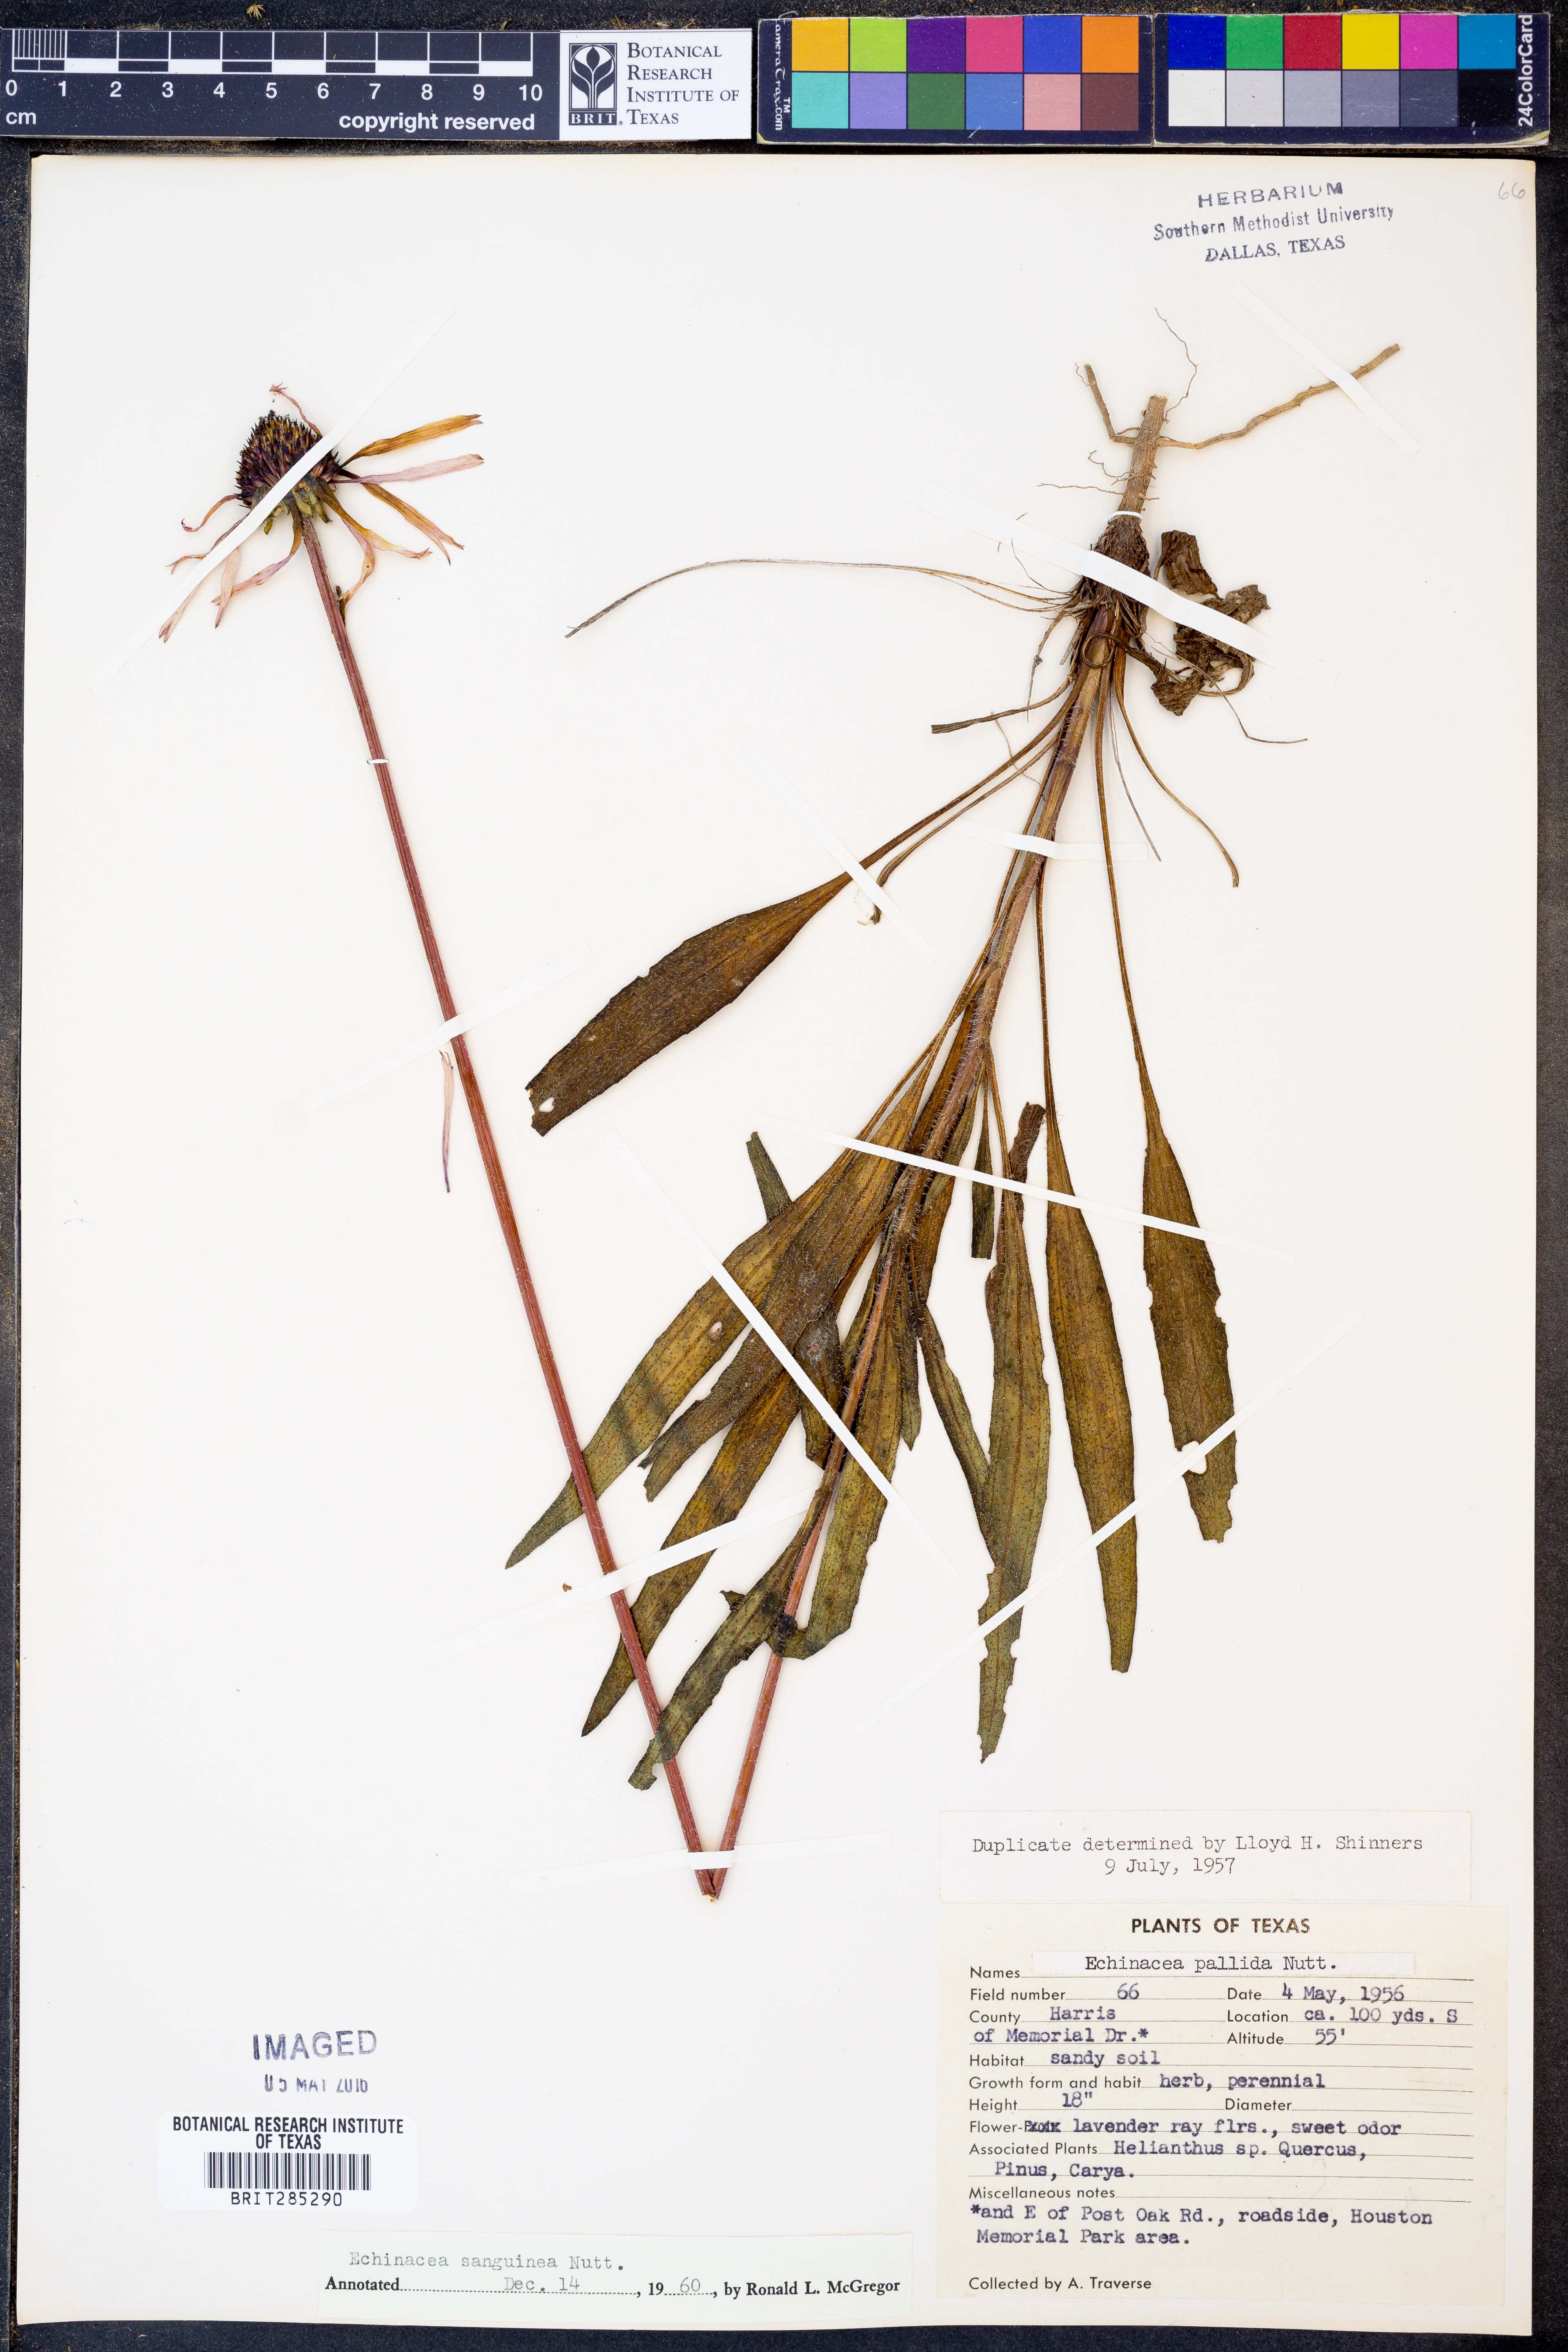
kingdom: Plantae
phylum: Tracheophyta
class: Magnoliopsida
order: Asterales
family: Asteraceae
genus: Echinacea
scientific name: Echinacea sanguinea
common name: Sanguine purple-coneflower
